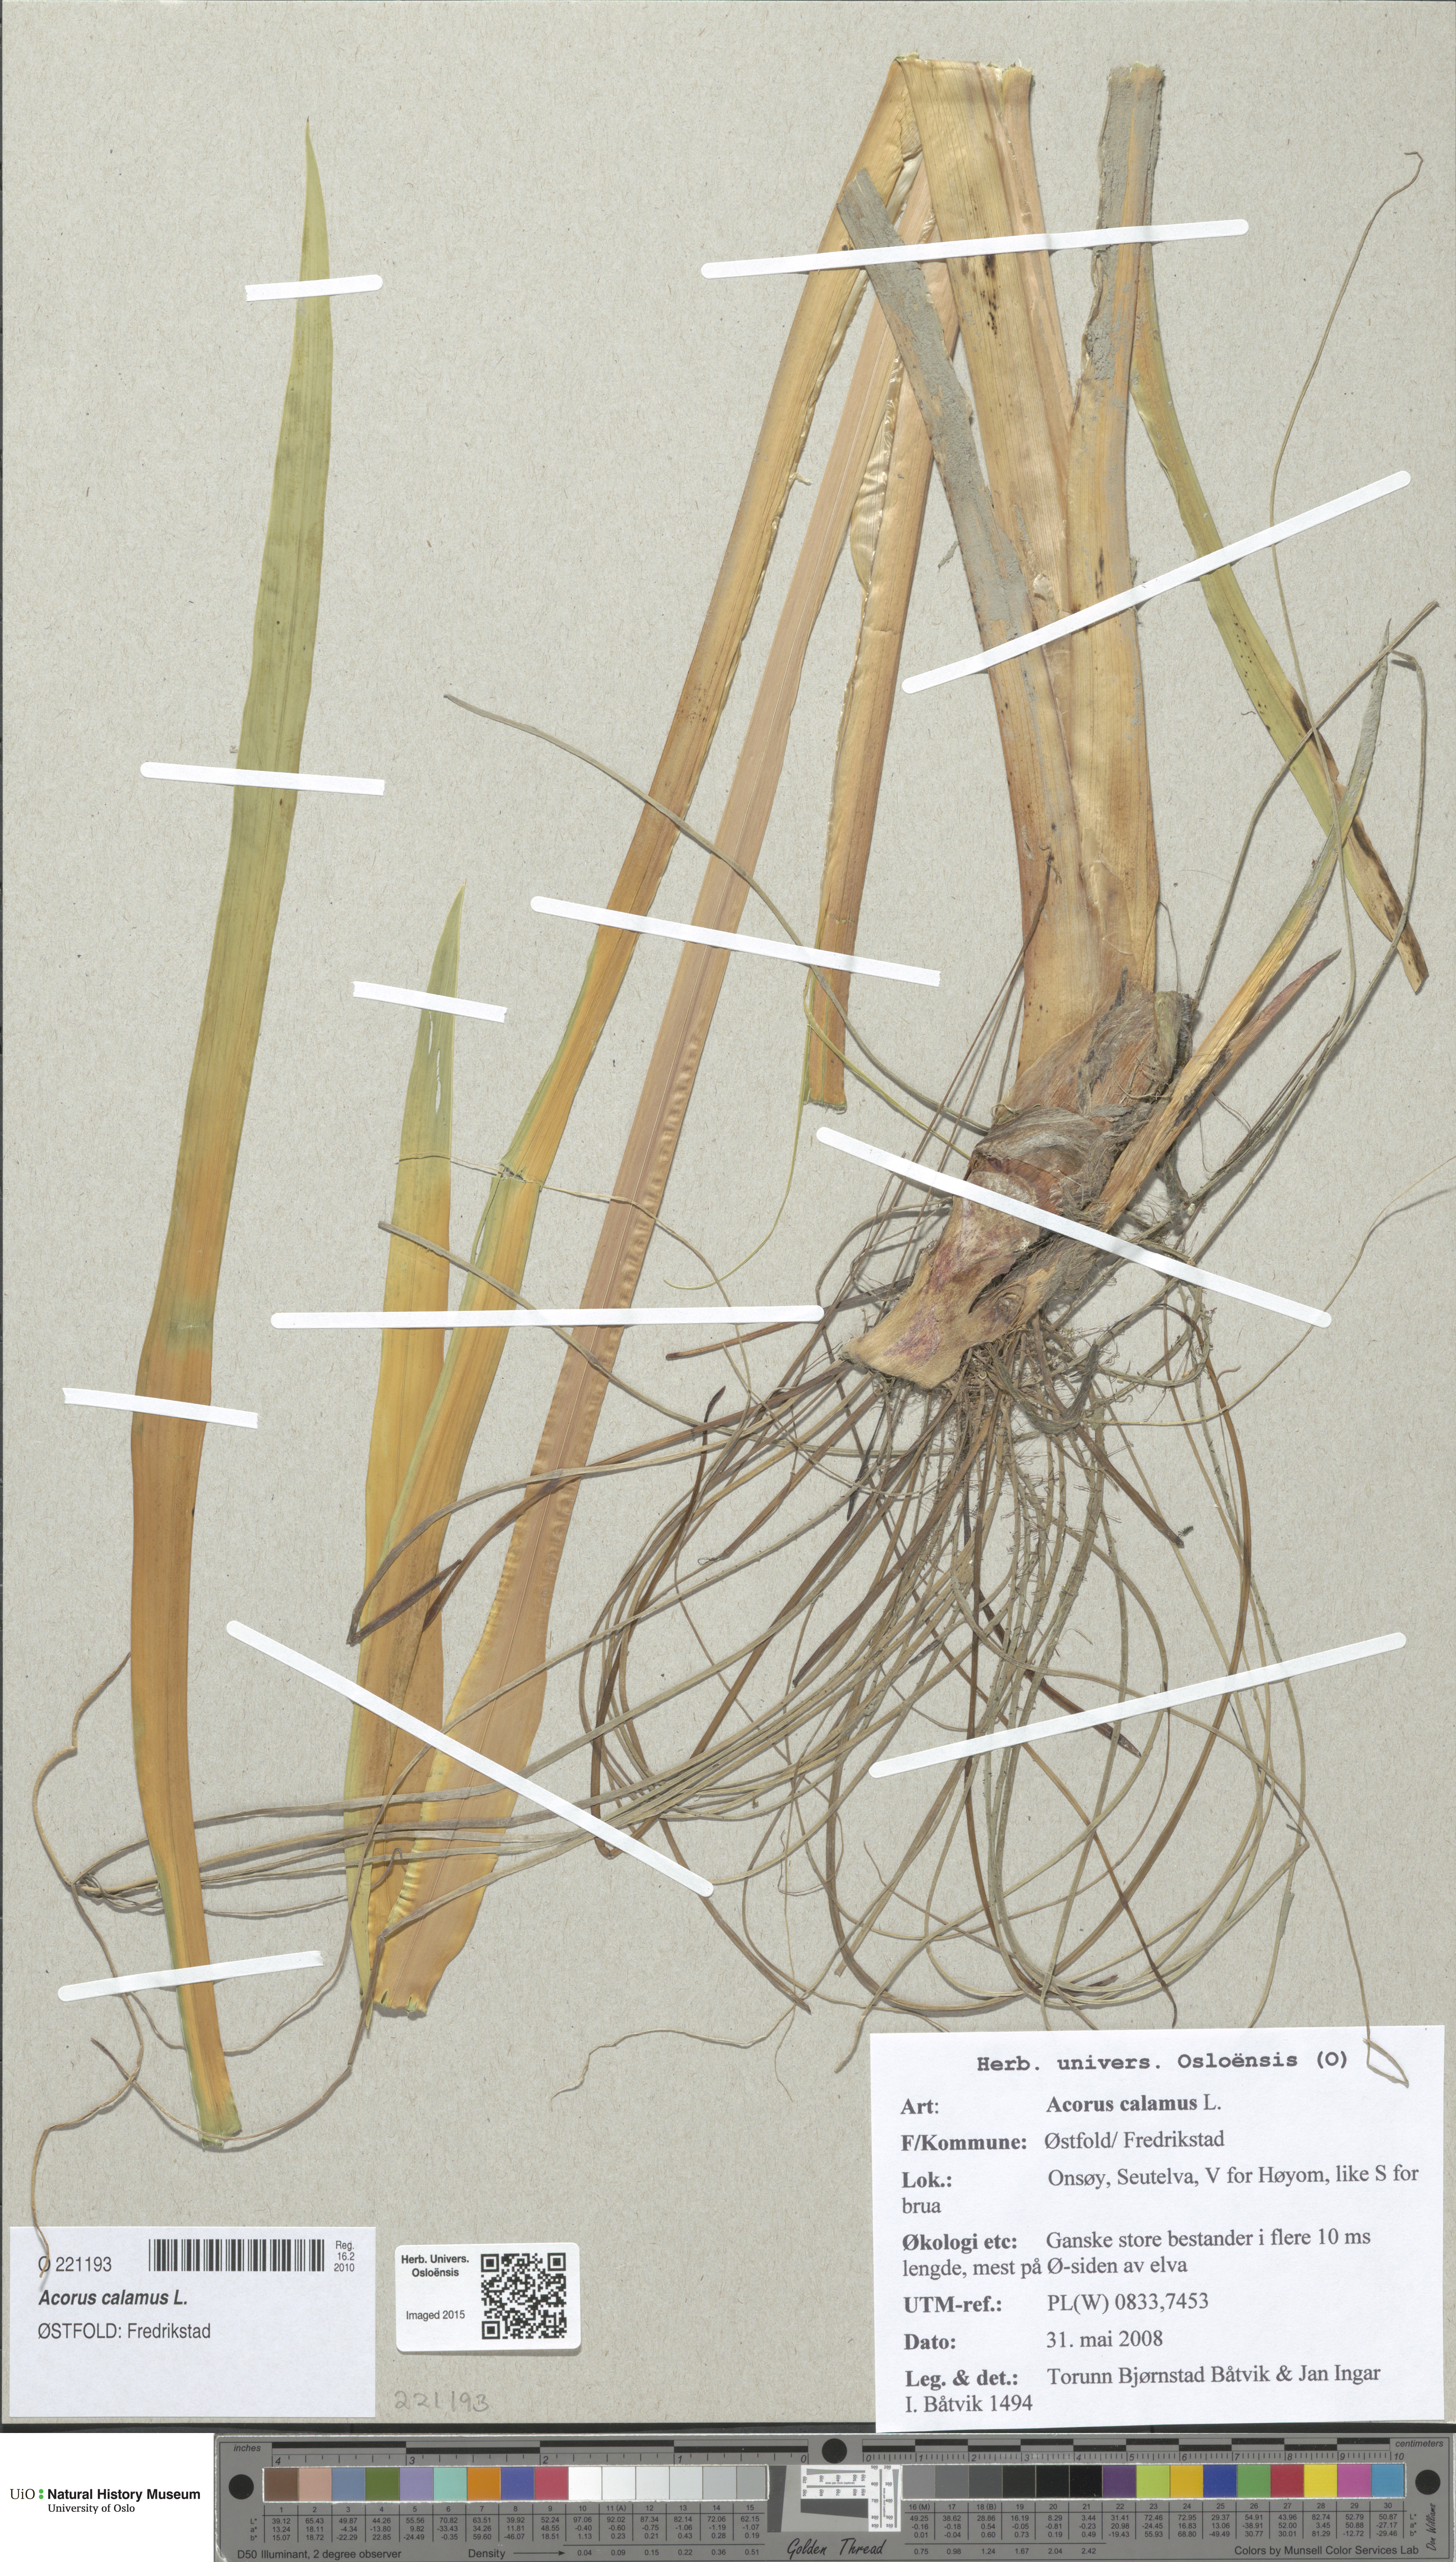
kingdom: Plantae
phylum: Tracheophyta
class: Liliopsida
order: Acorales
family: Acoraceae
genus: Acorus
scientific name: Acorus calamus
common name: Sweet-flag
